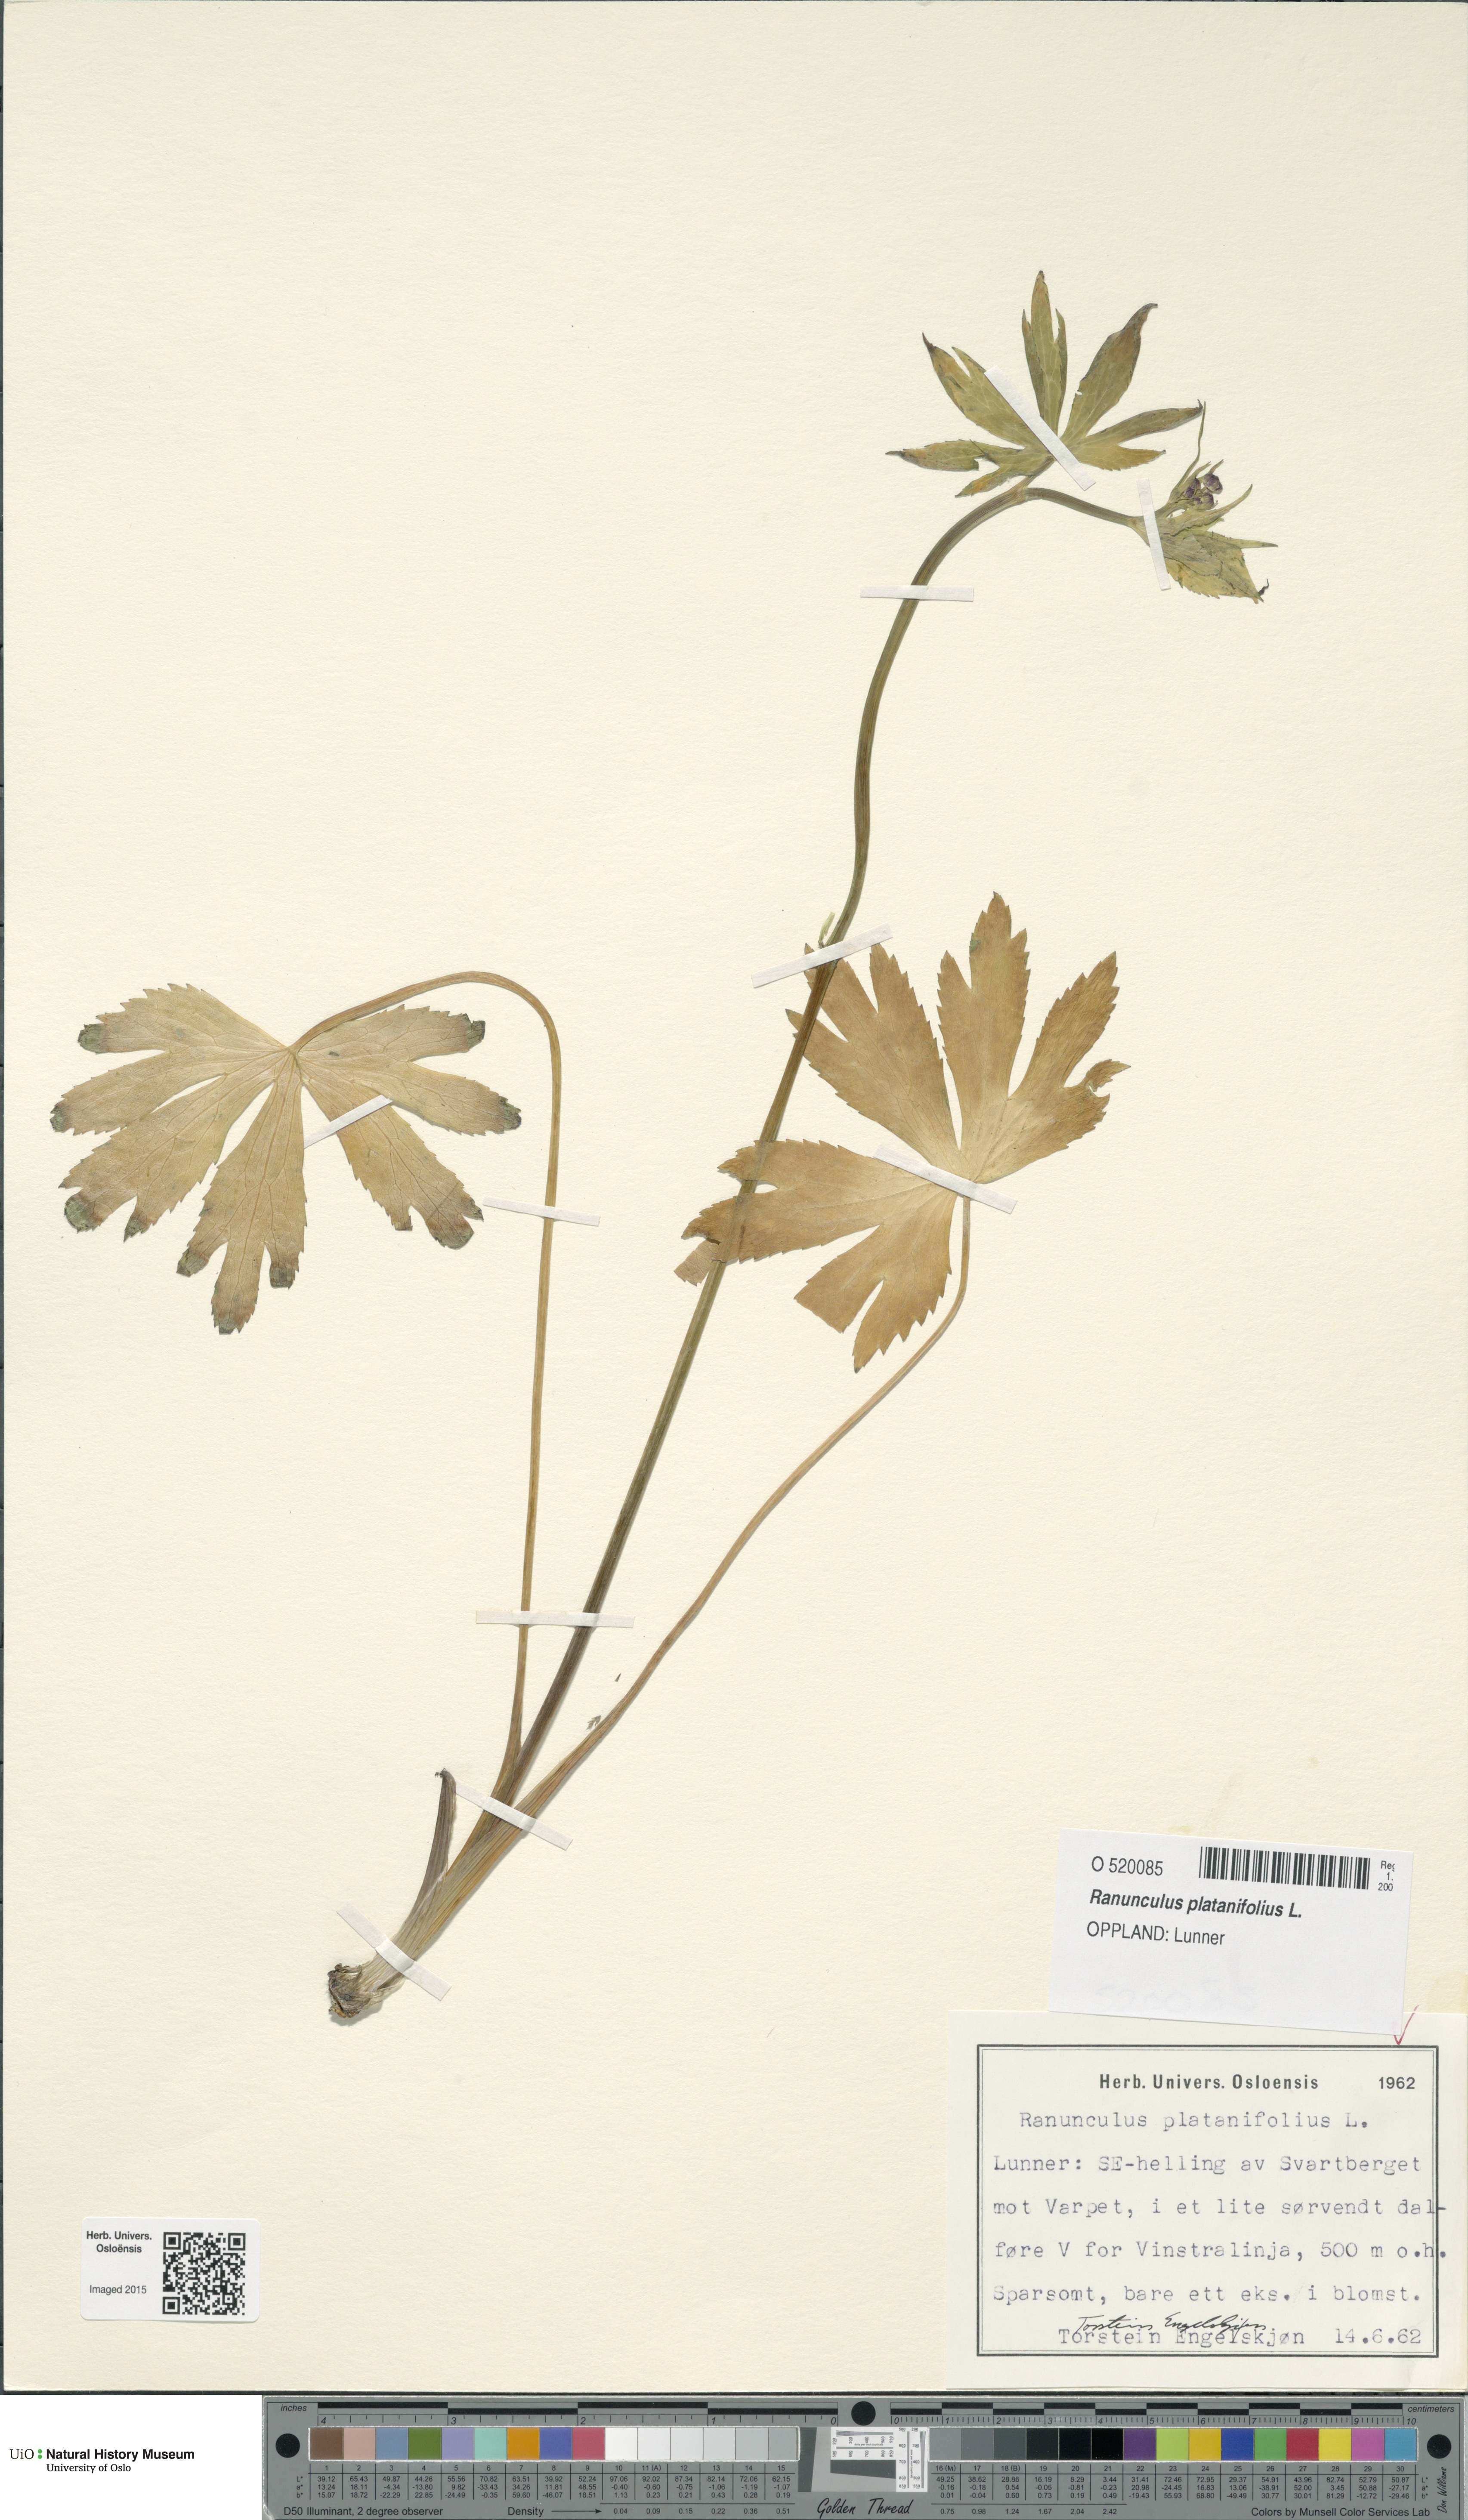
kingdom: Plantae
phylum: Tracheophyta
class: Magnoliopsida
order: Ranunculales
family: Ranunculaceae
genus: Ranunculus
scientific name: Ranunculus platanifolius
